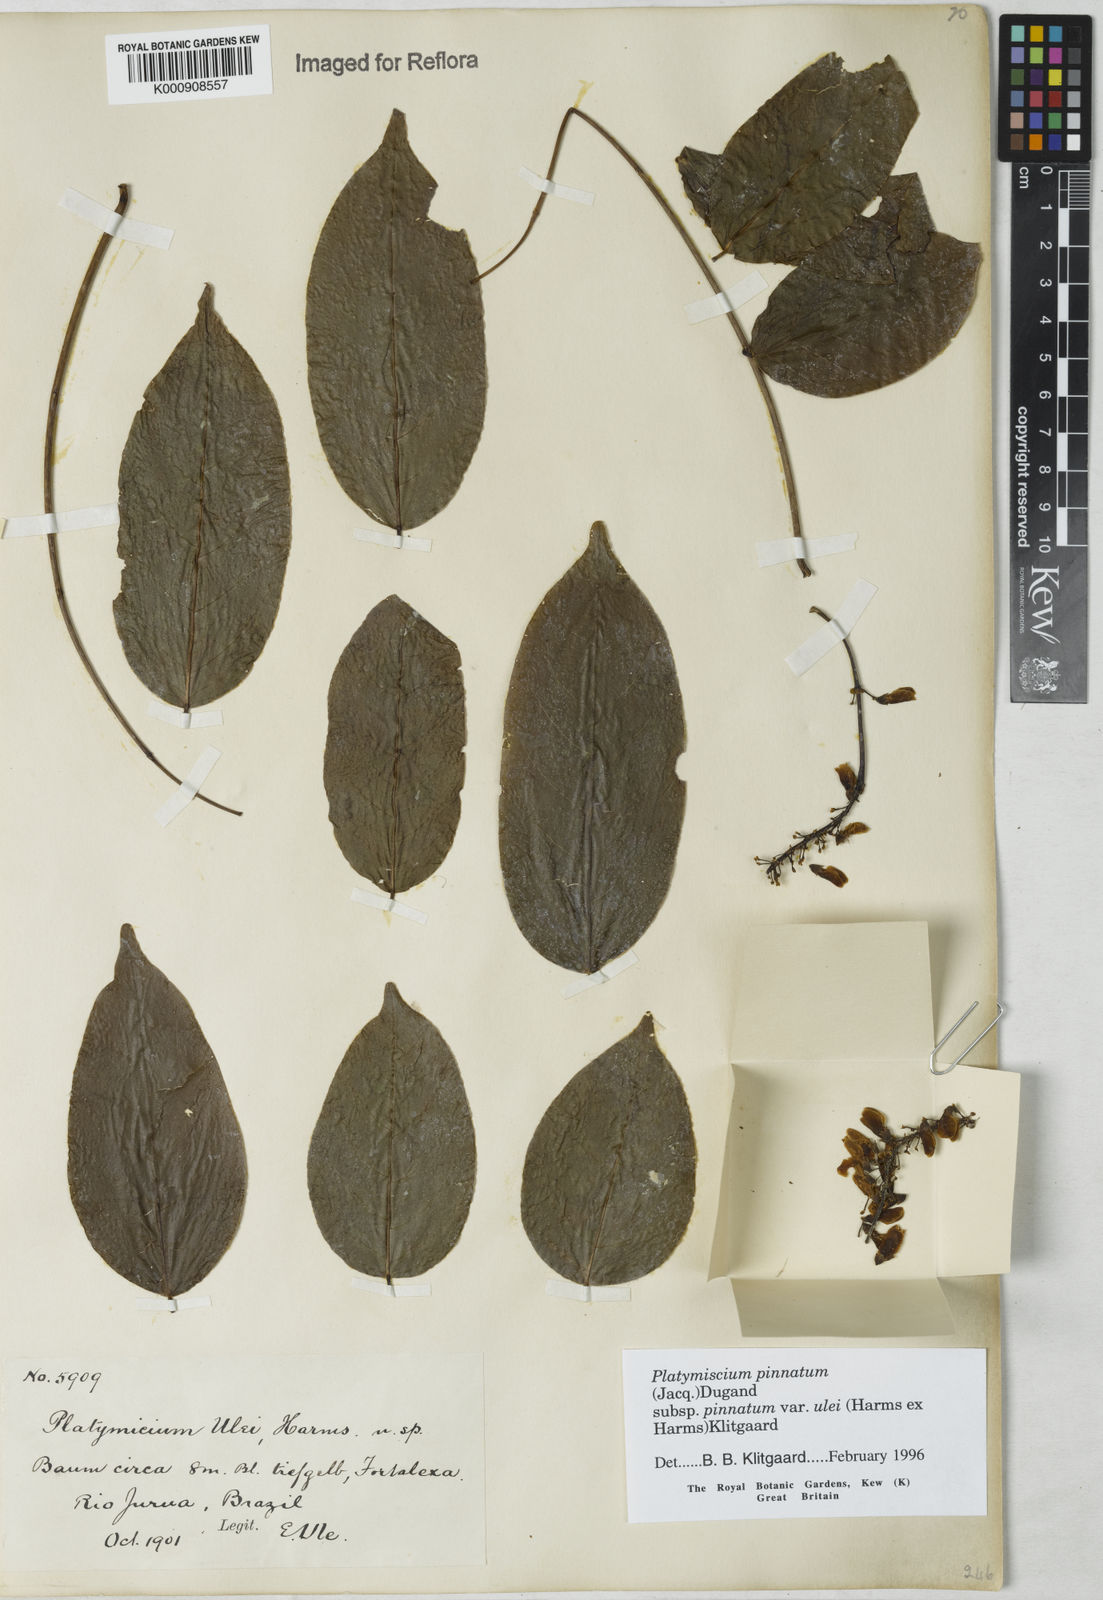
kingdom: Plantae
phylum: Tracheophyta
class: Magnoliopsida
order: Fabales
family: Fabaceae
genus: Platymiscium
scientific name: Platymiscium pinnatum
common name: Panama redwood
